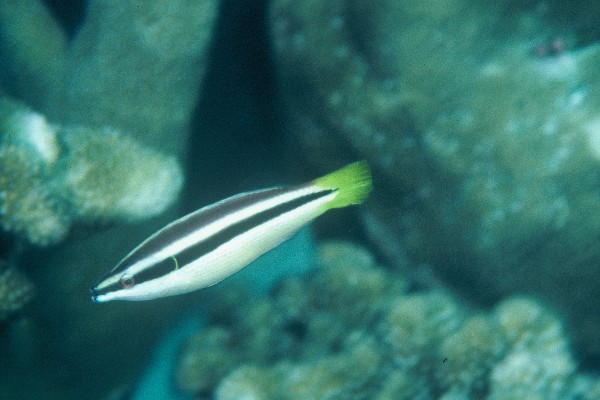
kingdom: Animalia
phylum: Chordata
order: Perciformes
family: Labridae
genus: Diproctacanthus
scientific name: Diproctacanthus xanthurus
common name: Wandering cleaner wrasse
